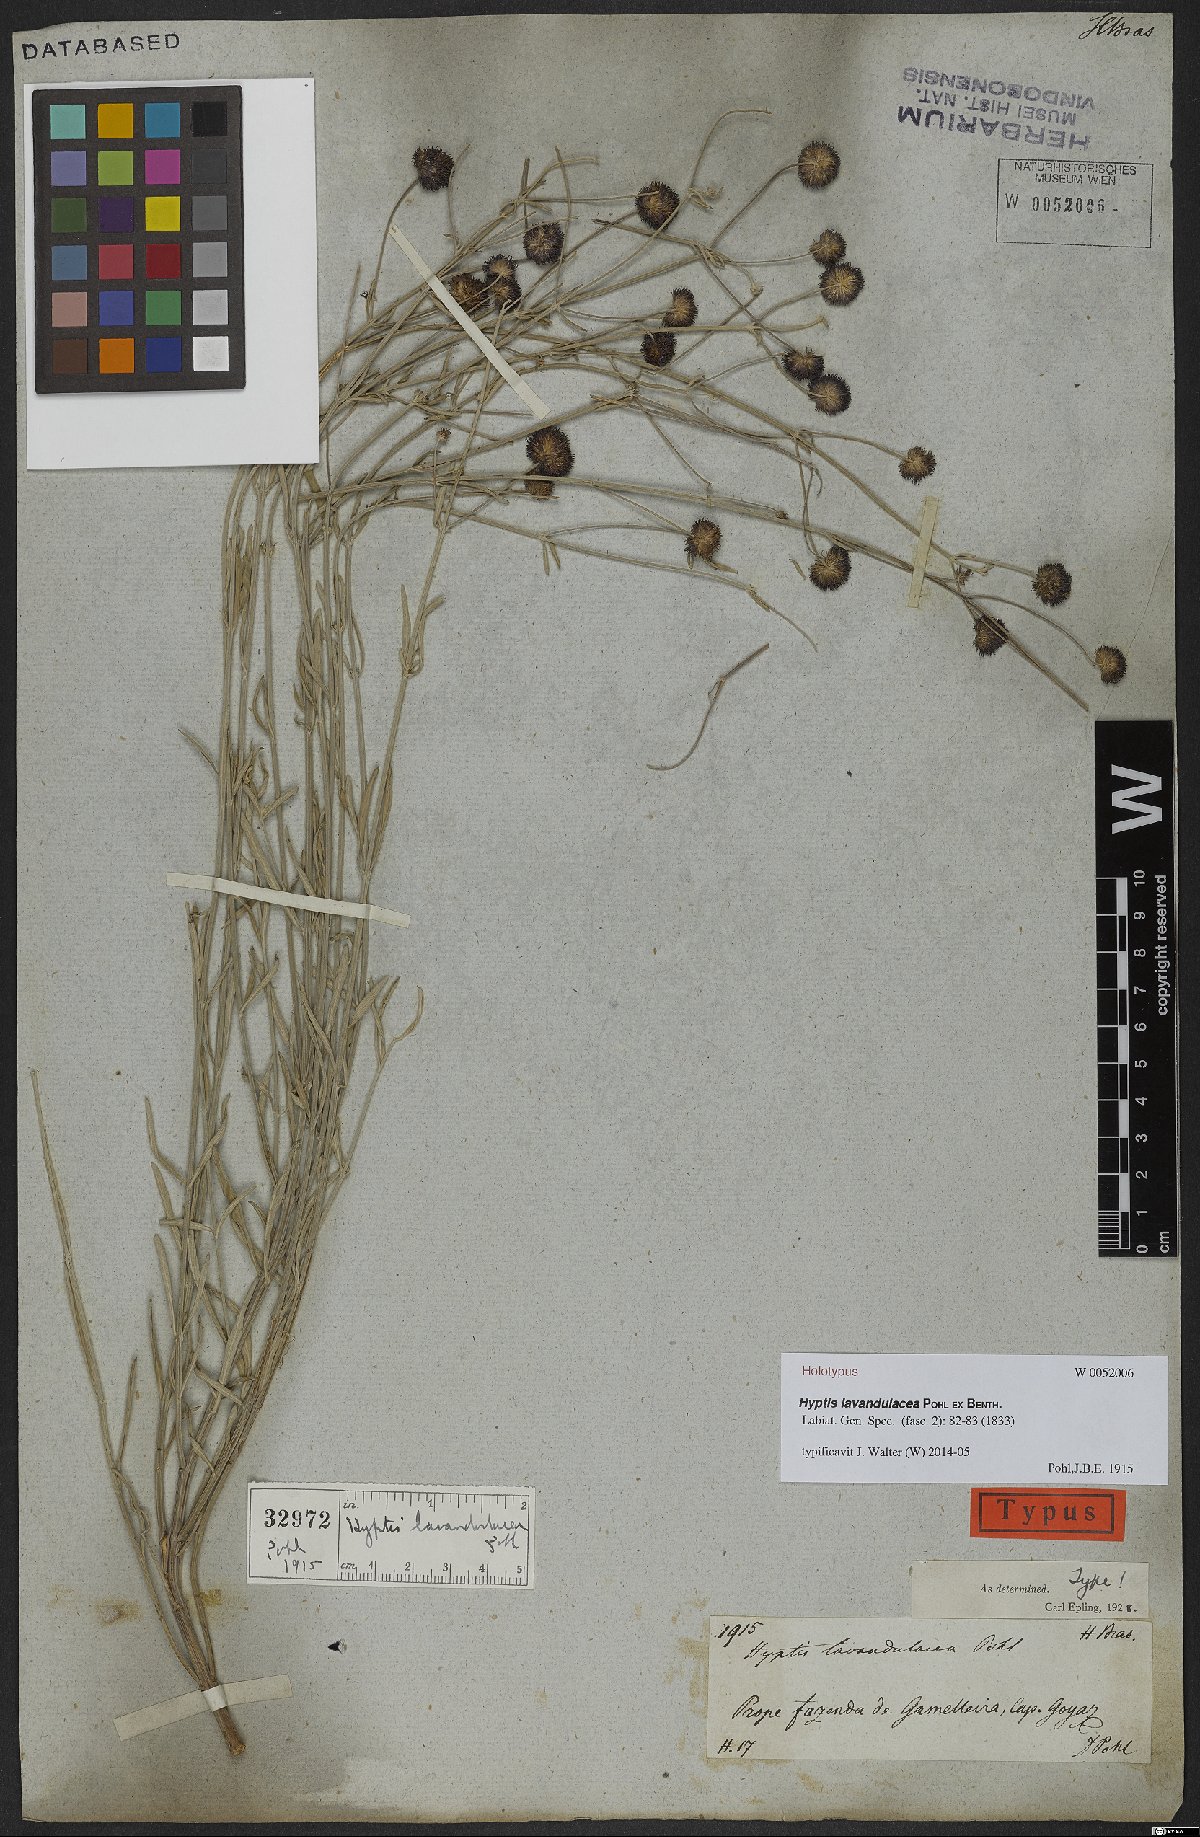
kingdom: Plantae
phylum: Tracheophyta
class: Magnoliopsida
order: Lamiales
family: Lamiaceae
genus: Hyptis
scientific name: Hyptis lavandulacea
